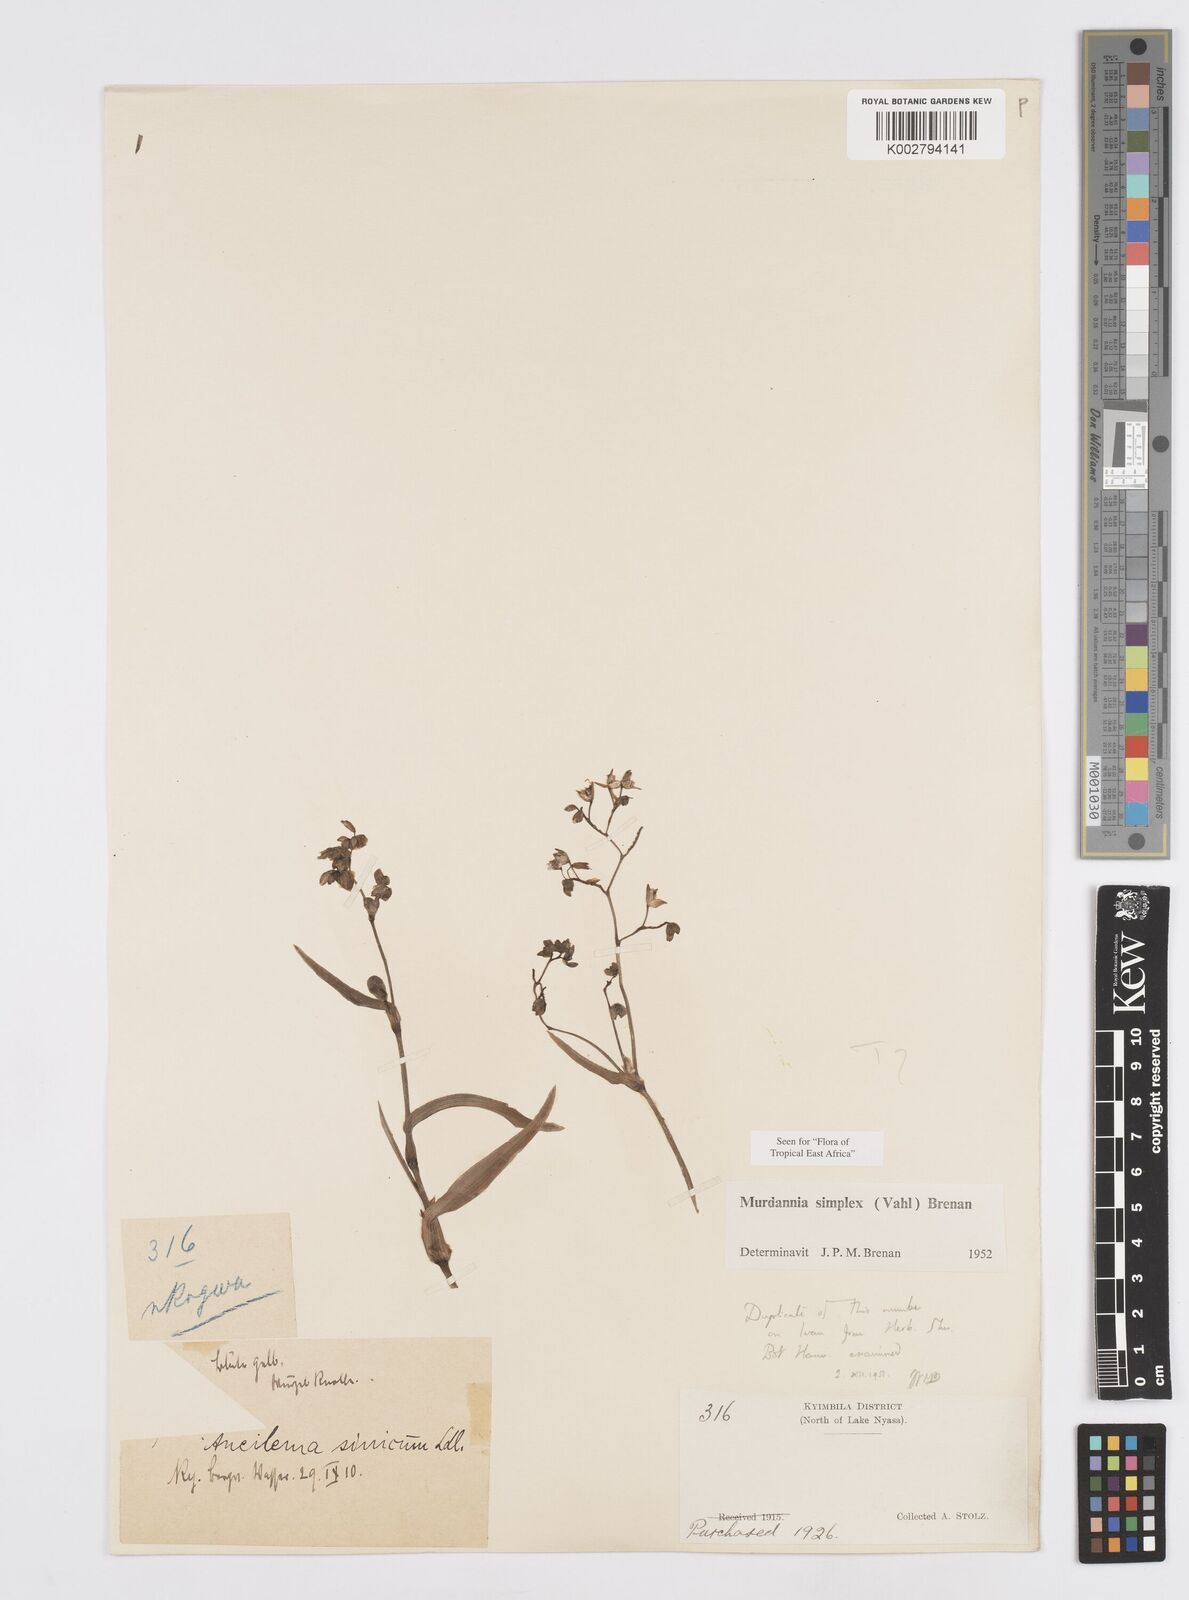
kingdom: Plantae
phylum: Tracheophyta
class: Liliopsida
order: Commelinales
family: Commelinaceae
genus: Murdannia
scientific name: Murdannia simplex
